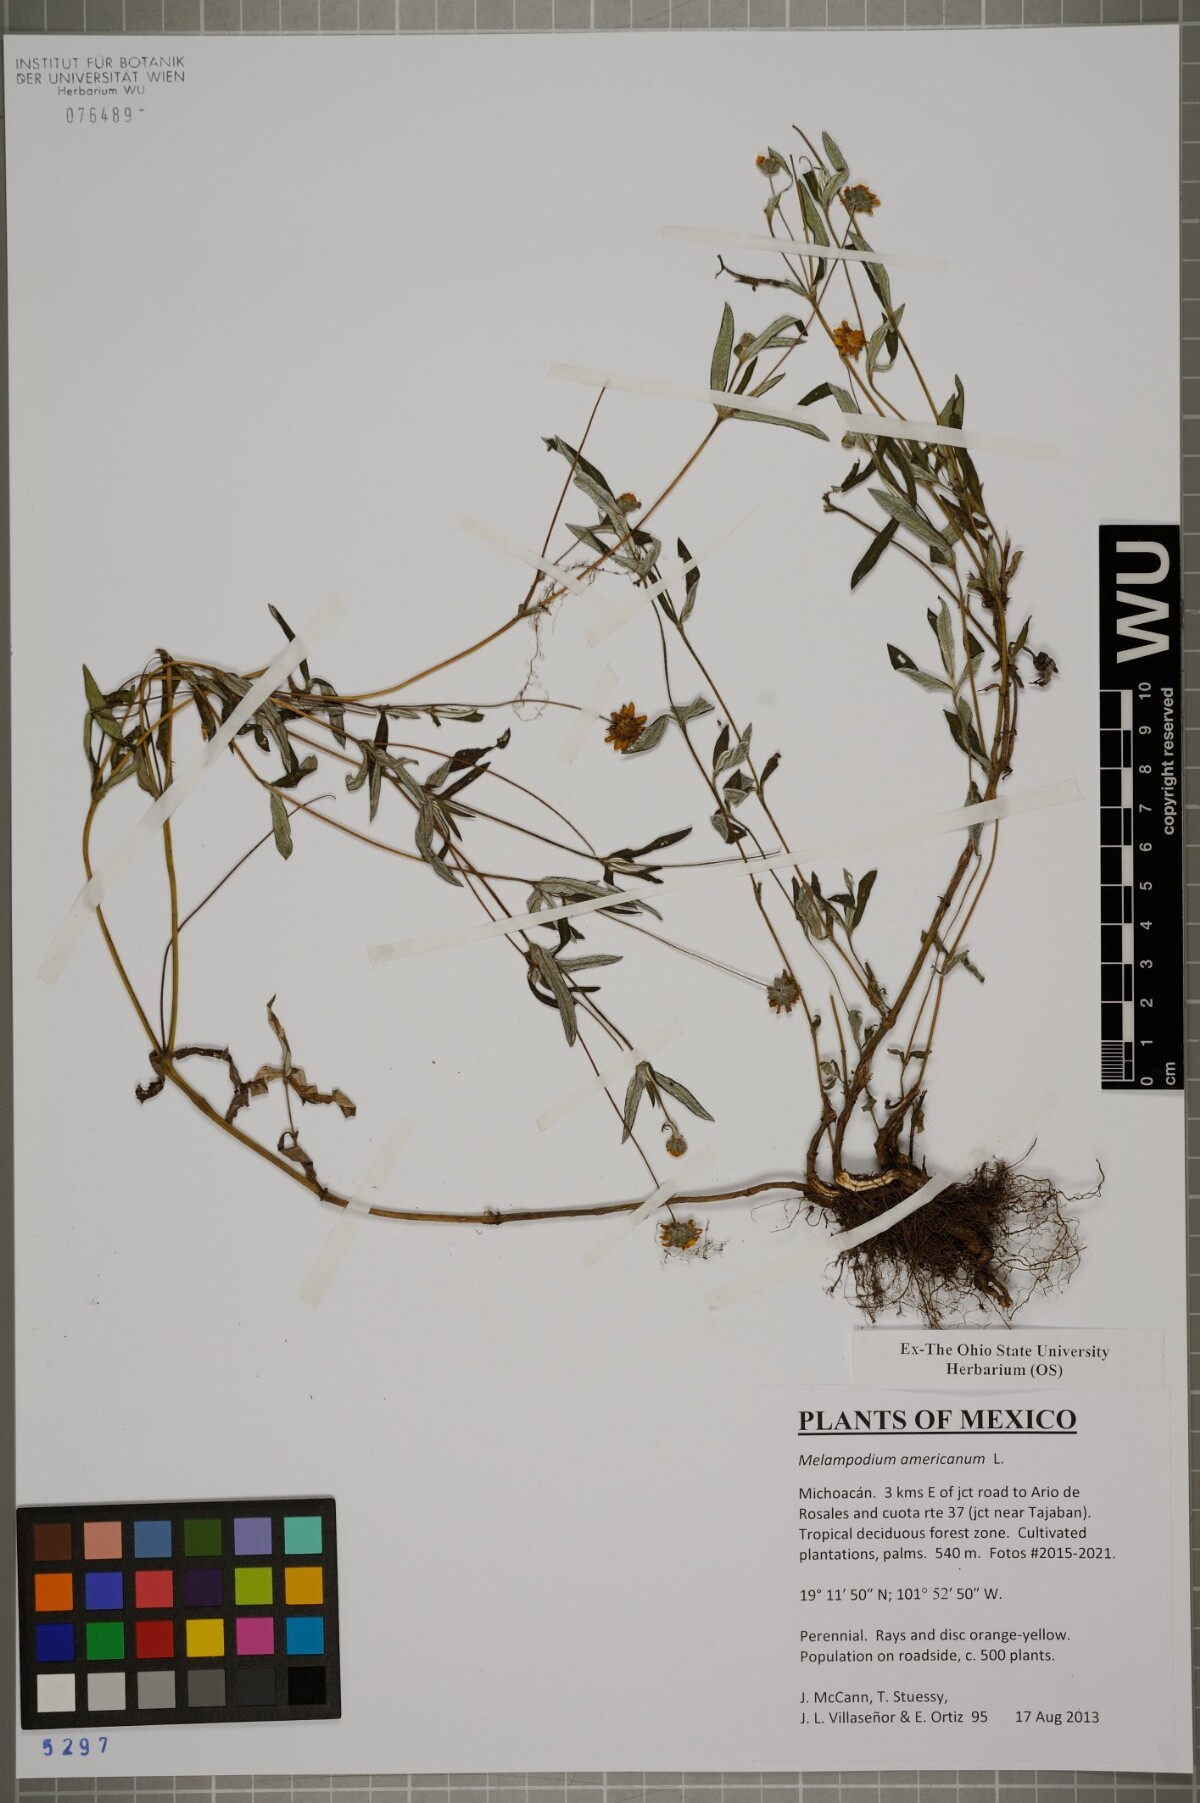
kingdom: Plantae
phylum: Tracheophyta
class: Magnoliopsida
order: Asterales
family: Asteraceae
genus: Melampodium
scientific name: Melampodium americanum
